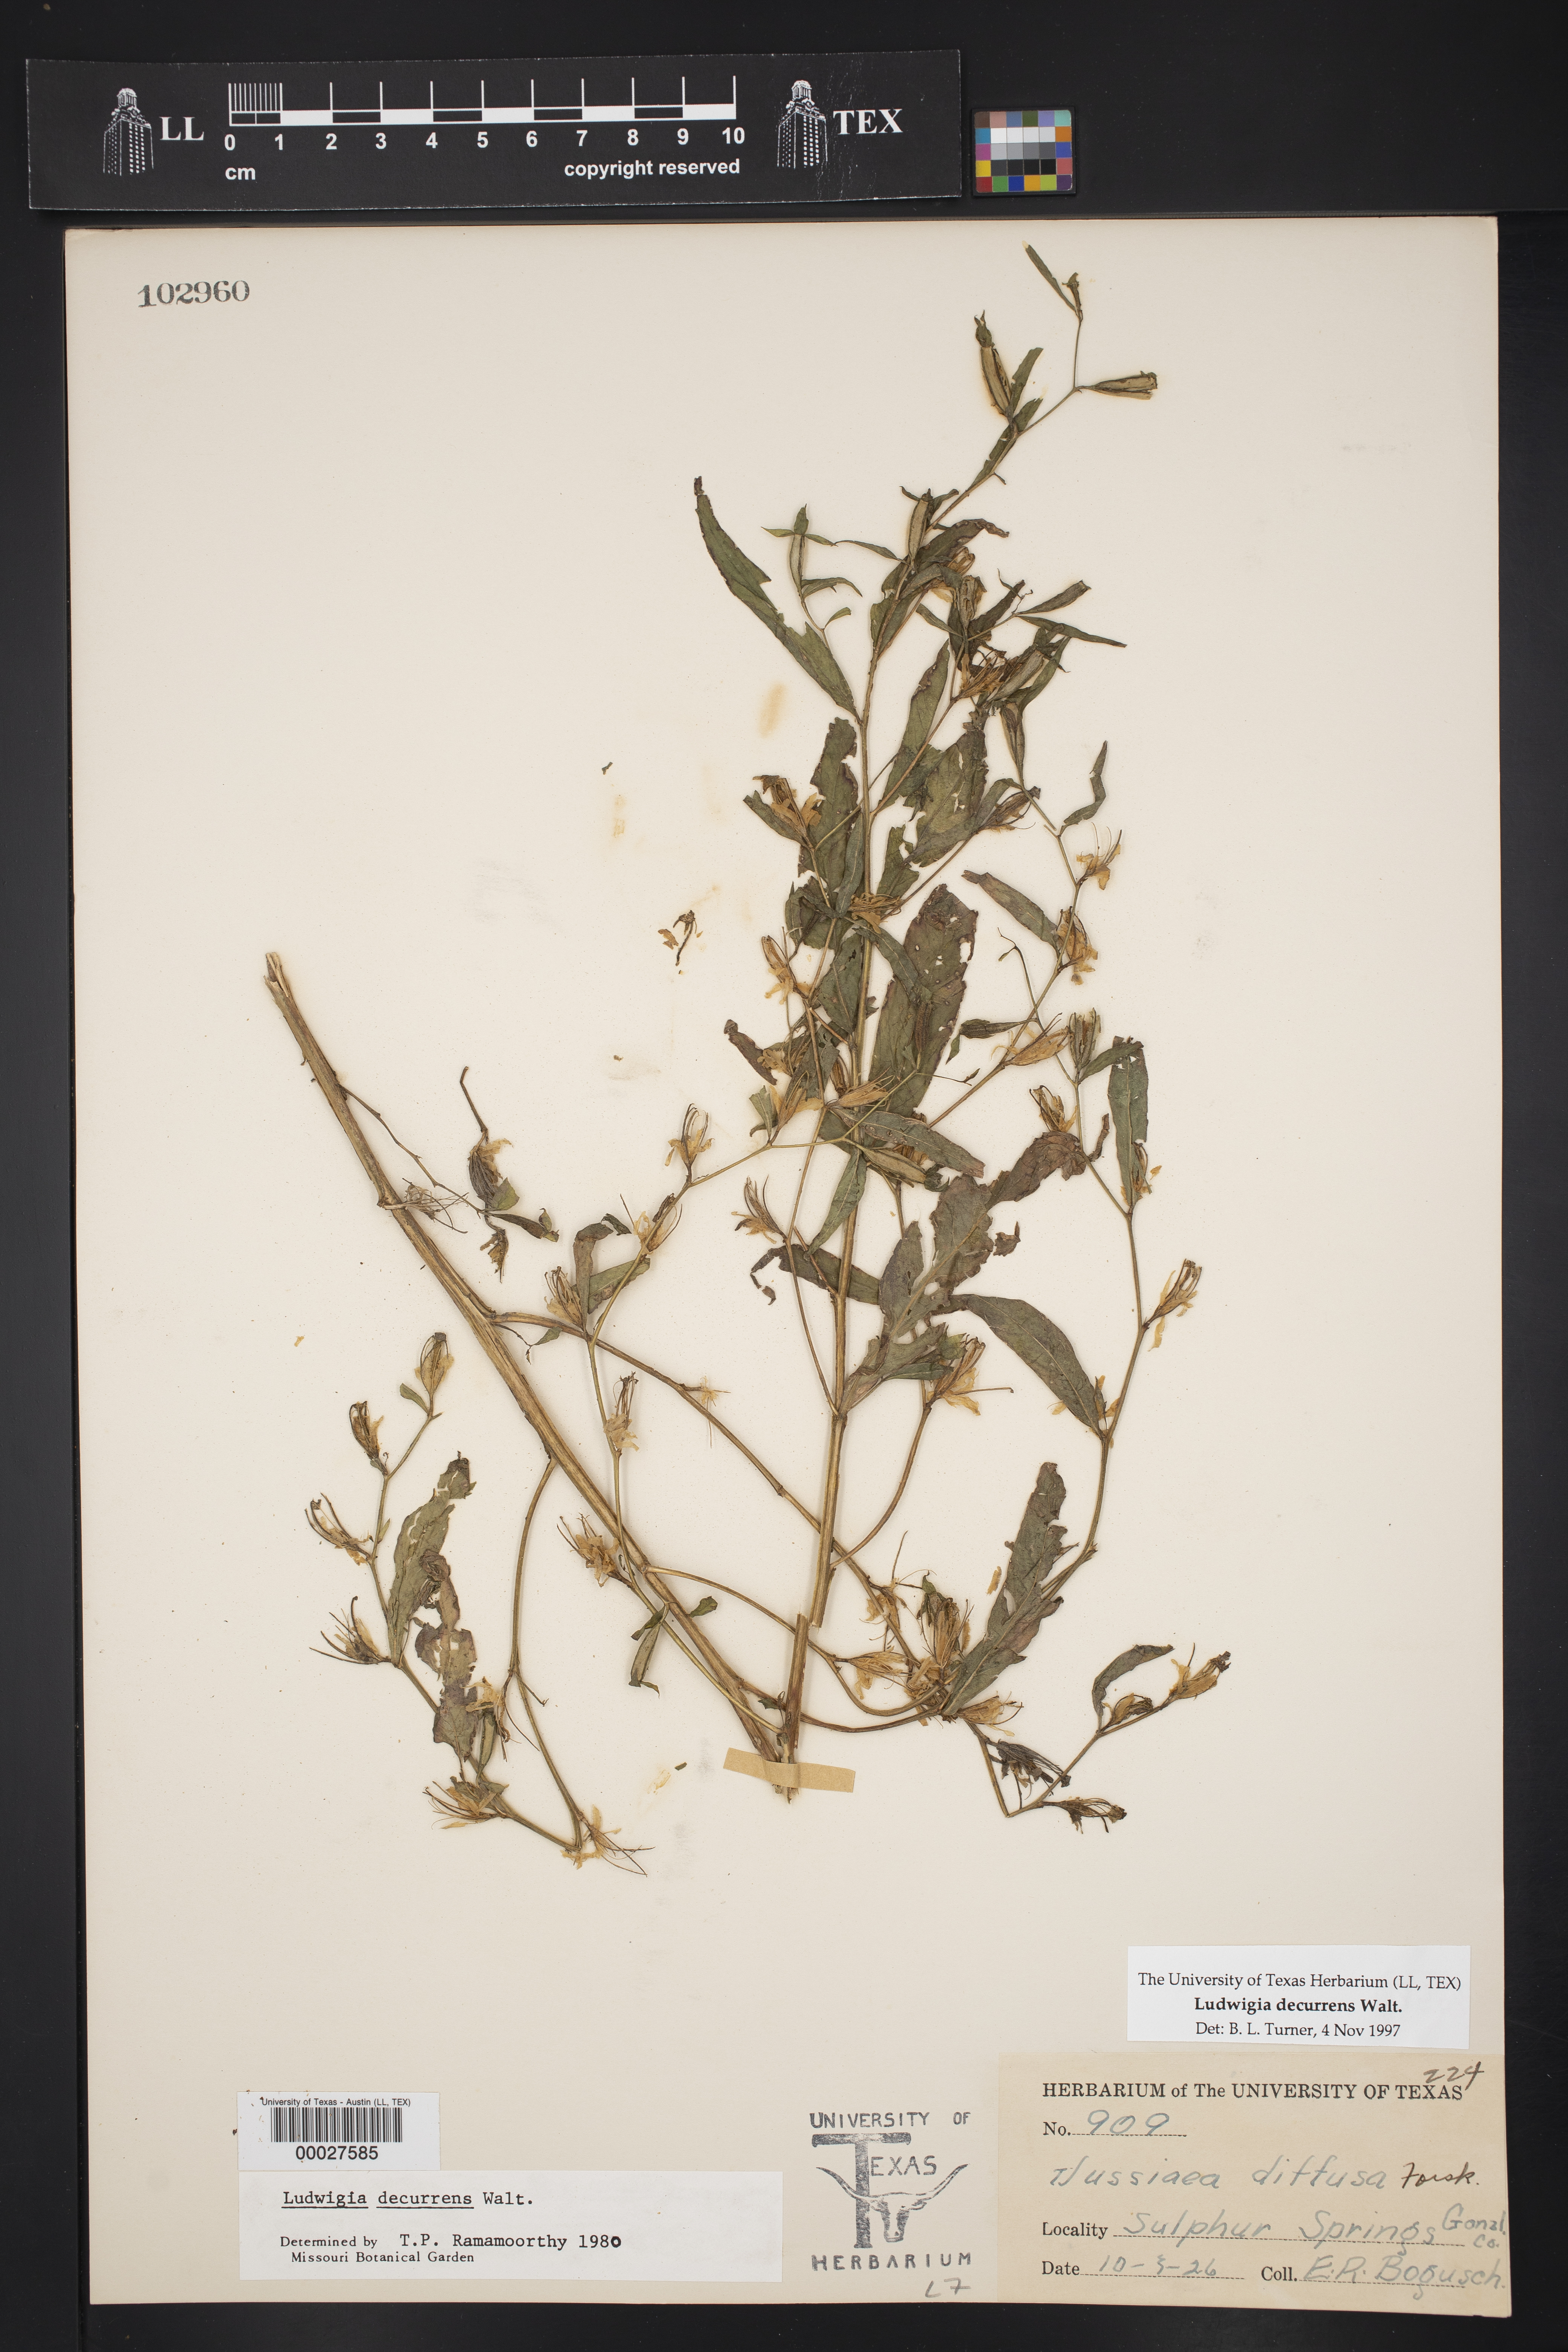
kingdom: Plantae
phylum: Tracheophyta
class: Magnoliopsida
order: Myrtales
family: Onagraceae
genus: Ludwigia
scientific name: Ludwigia decurrens
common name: Winged water-primrose
